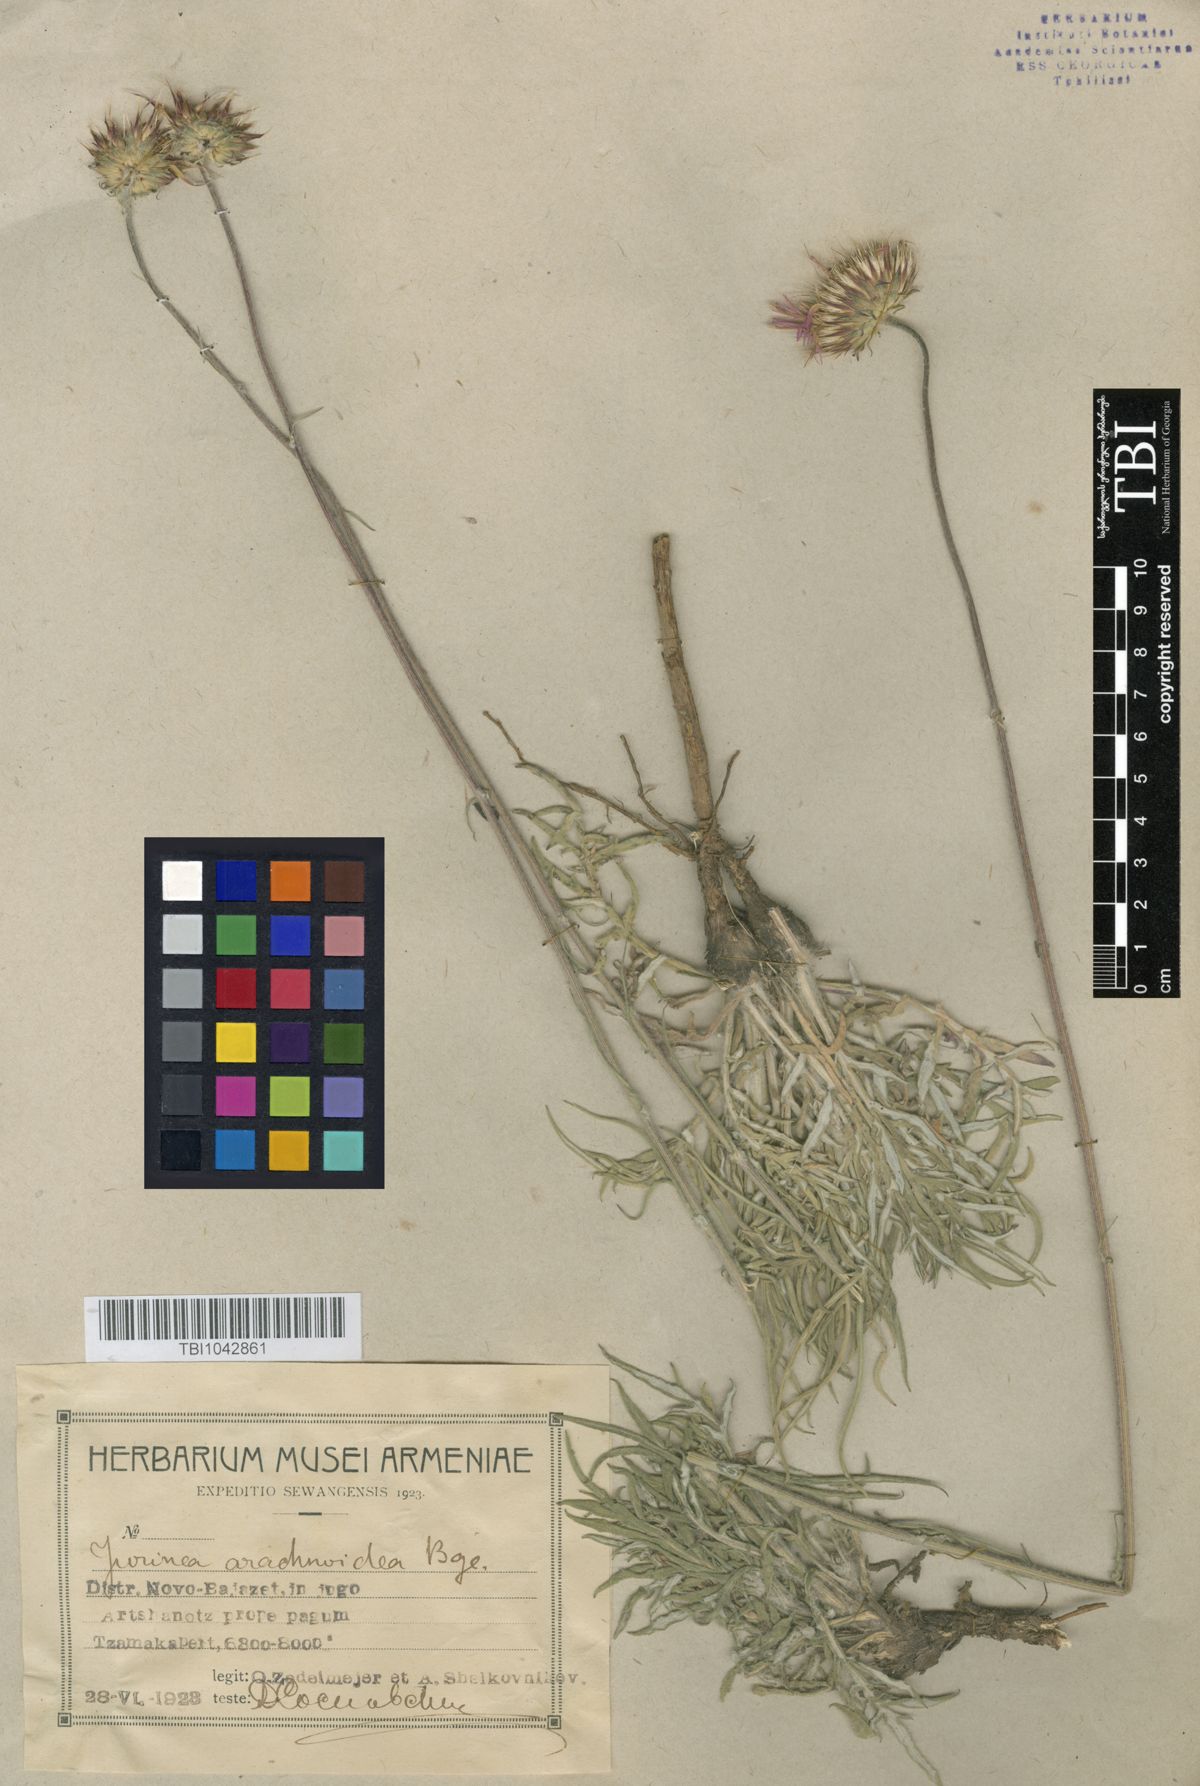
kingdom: Plantae
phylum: Tracheophyta
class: Magnoliopsida
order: Asterales
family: Asteraceae
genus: Jurinea
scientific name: Jurinea blanda
